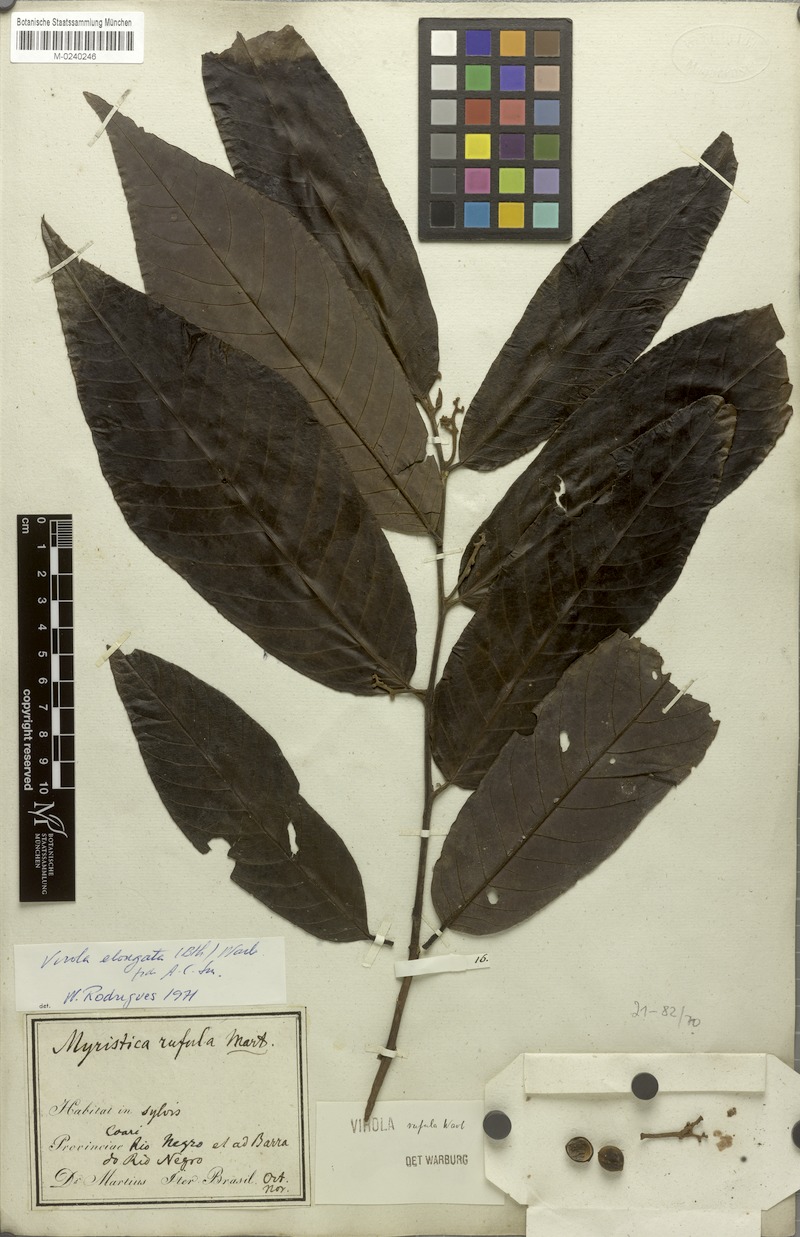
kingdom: Plantae
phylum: Tracheophyta
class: Magnoliopsida
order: Magnoliales
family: Myristicaceae
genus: Virola
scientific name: Virola elongata
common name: Sacred virola
